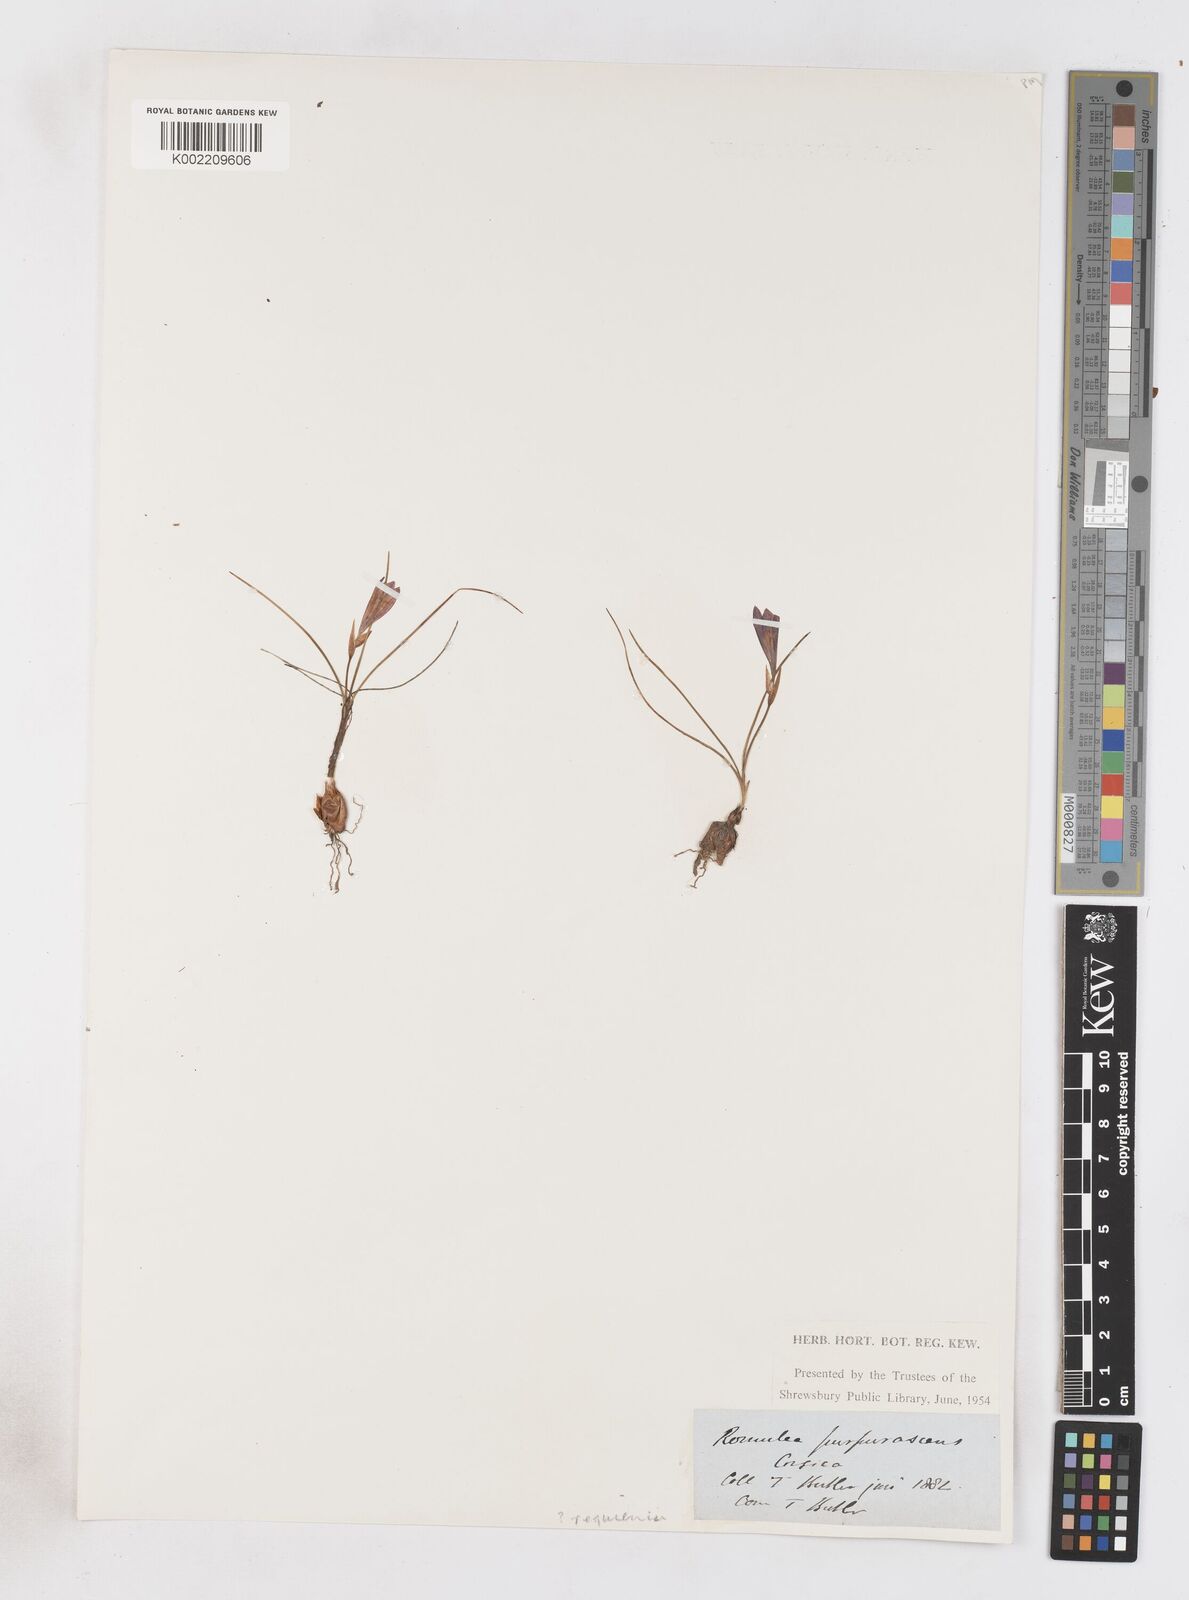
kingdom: Plantae
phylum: Tracheophyta
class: Liliopsida
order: Asparagales
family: Iridaceae
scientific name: Iridaceae
